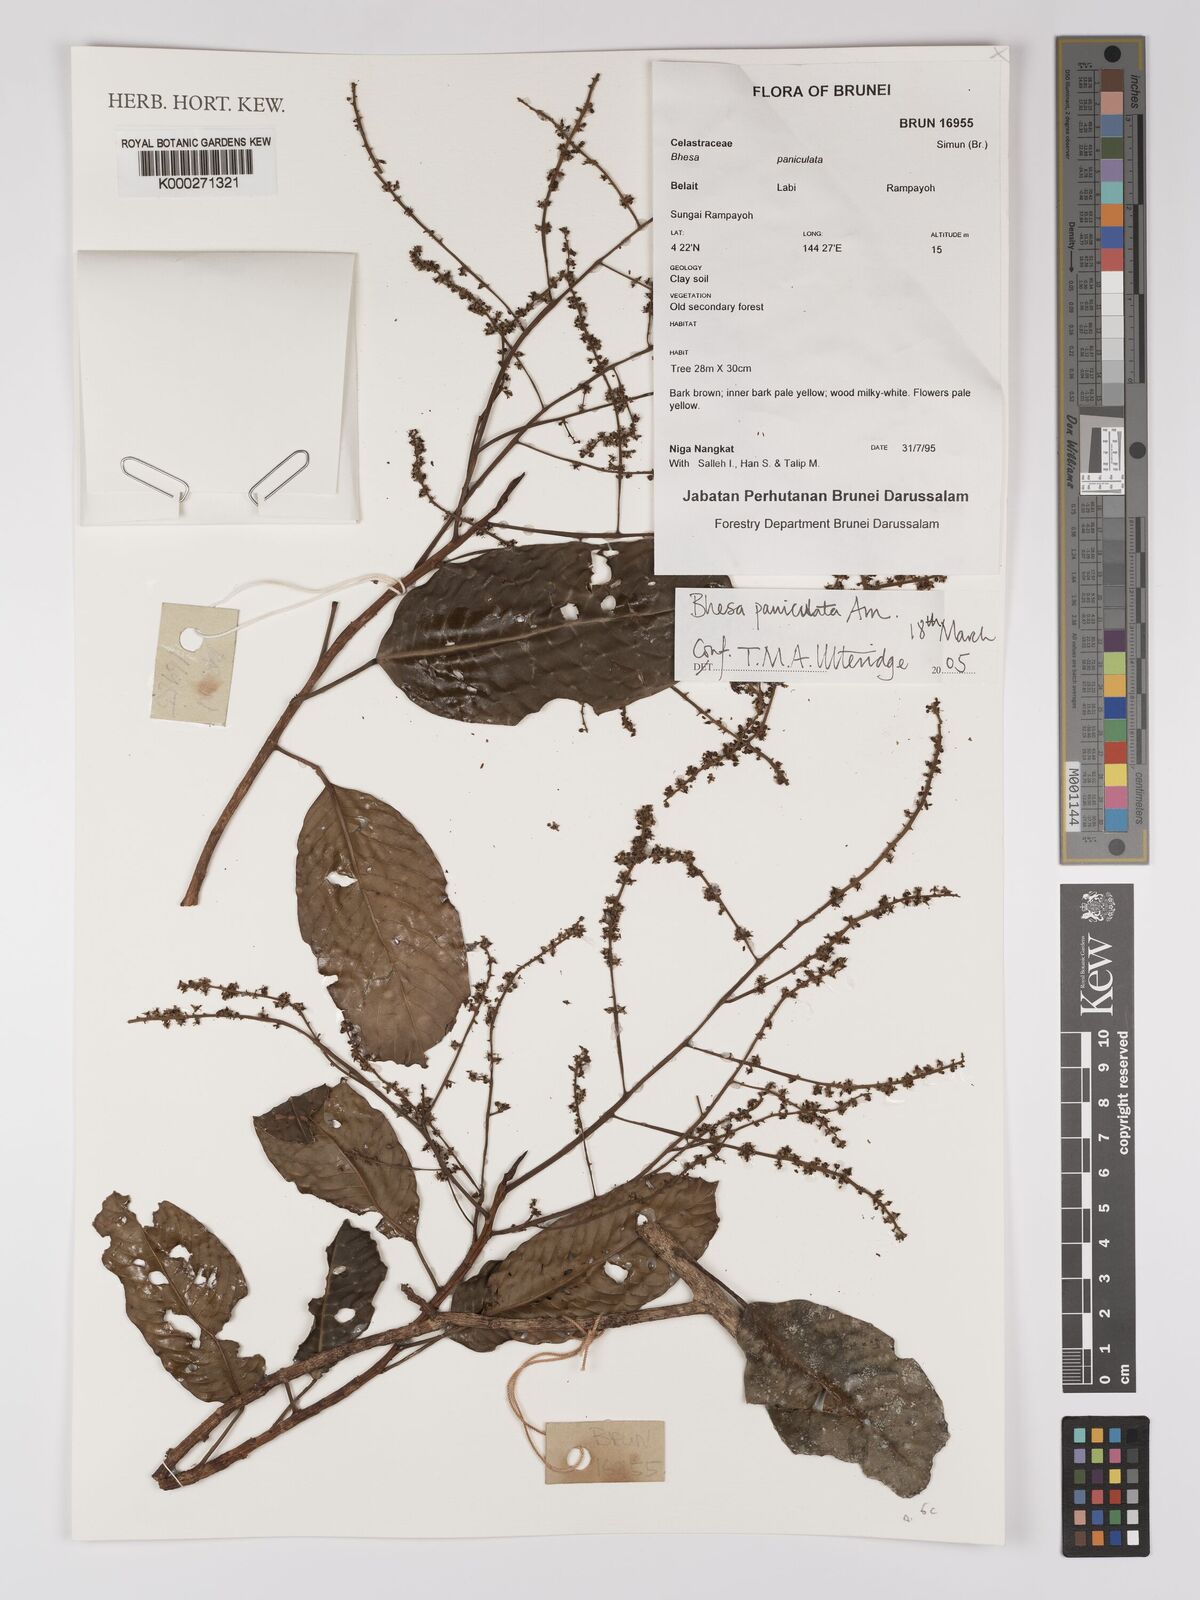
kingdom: Plantae
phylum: Tracheophyta
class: Magnoliopsida
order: Malpighiales
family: Centroplacaceae
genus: Bhesa
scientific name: Bhesa paniculata
